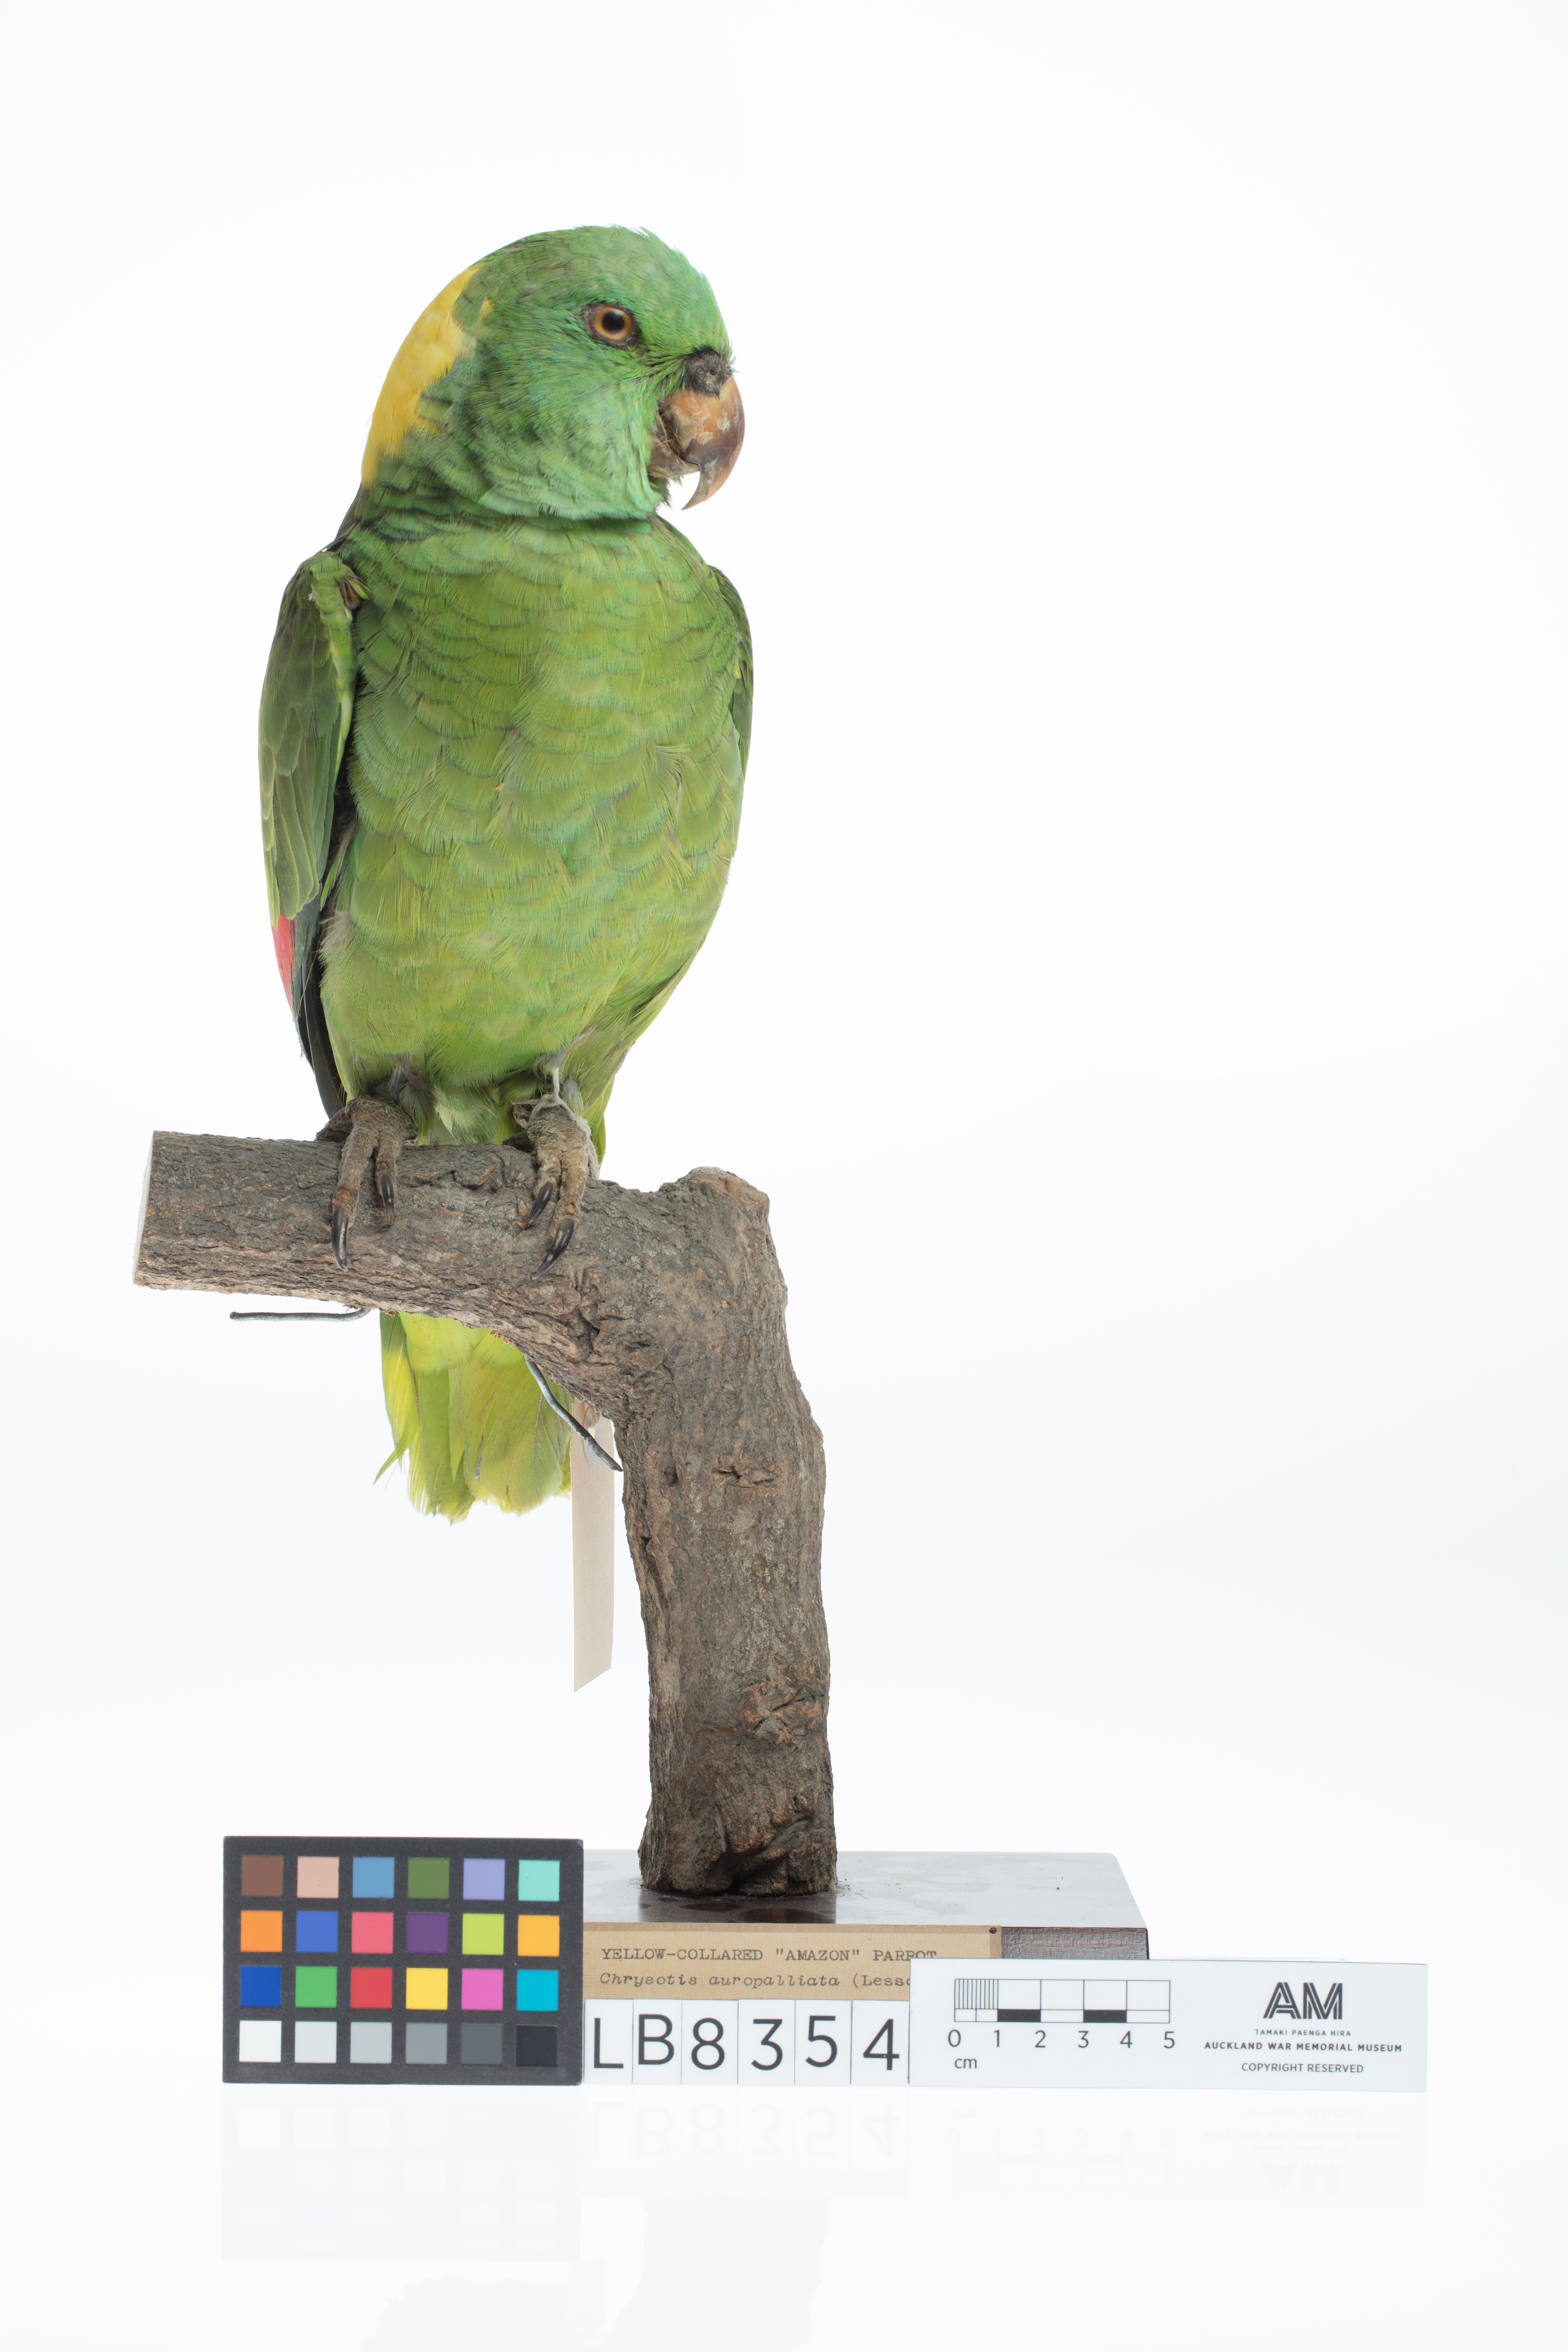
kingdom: Animalia
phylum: Chordata
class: Aves
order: Psittaciformes
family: Psittacidae
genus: Amazona
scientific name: Amazona auropalliata
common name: Yellow-naped amazon
